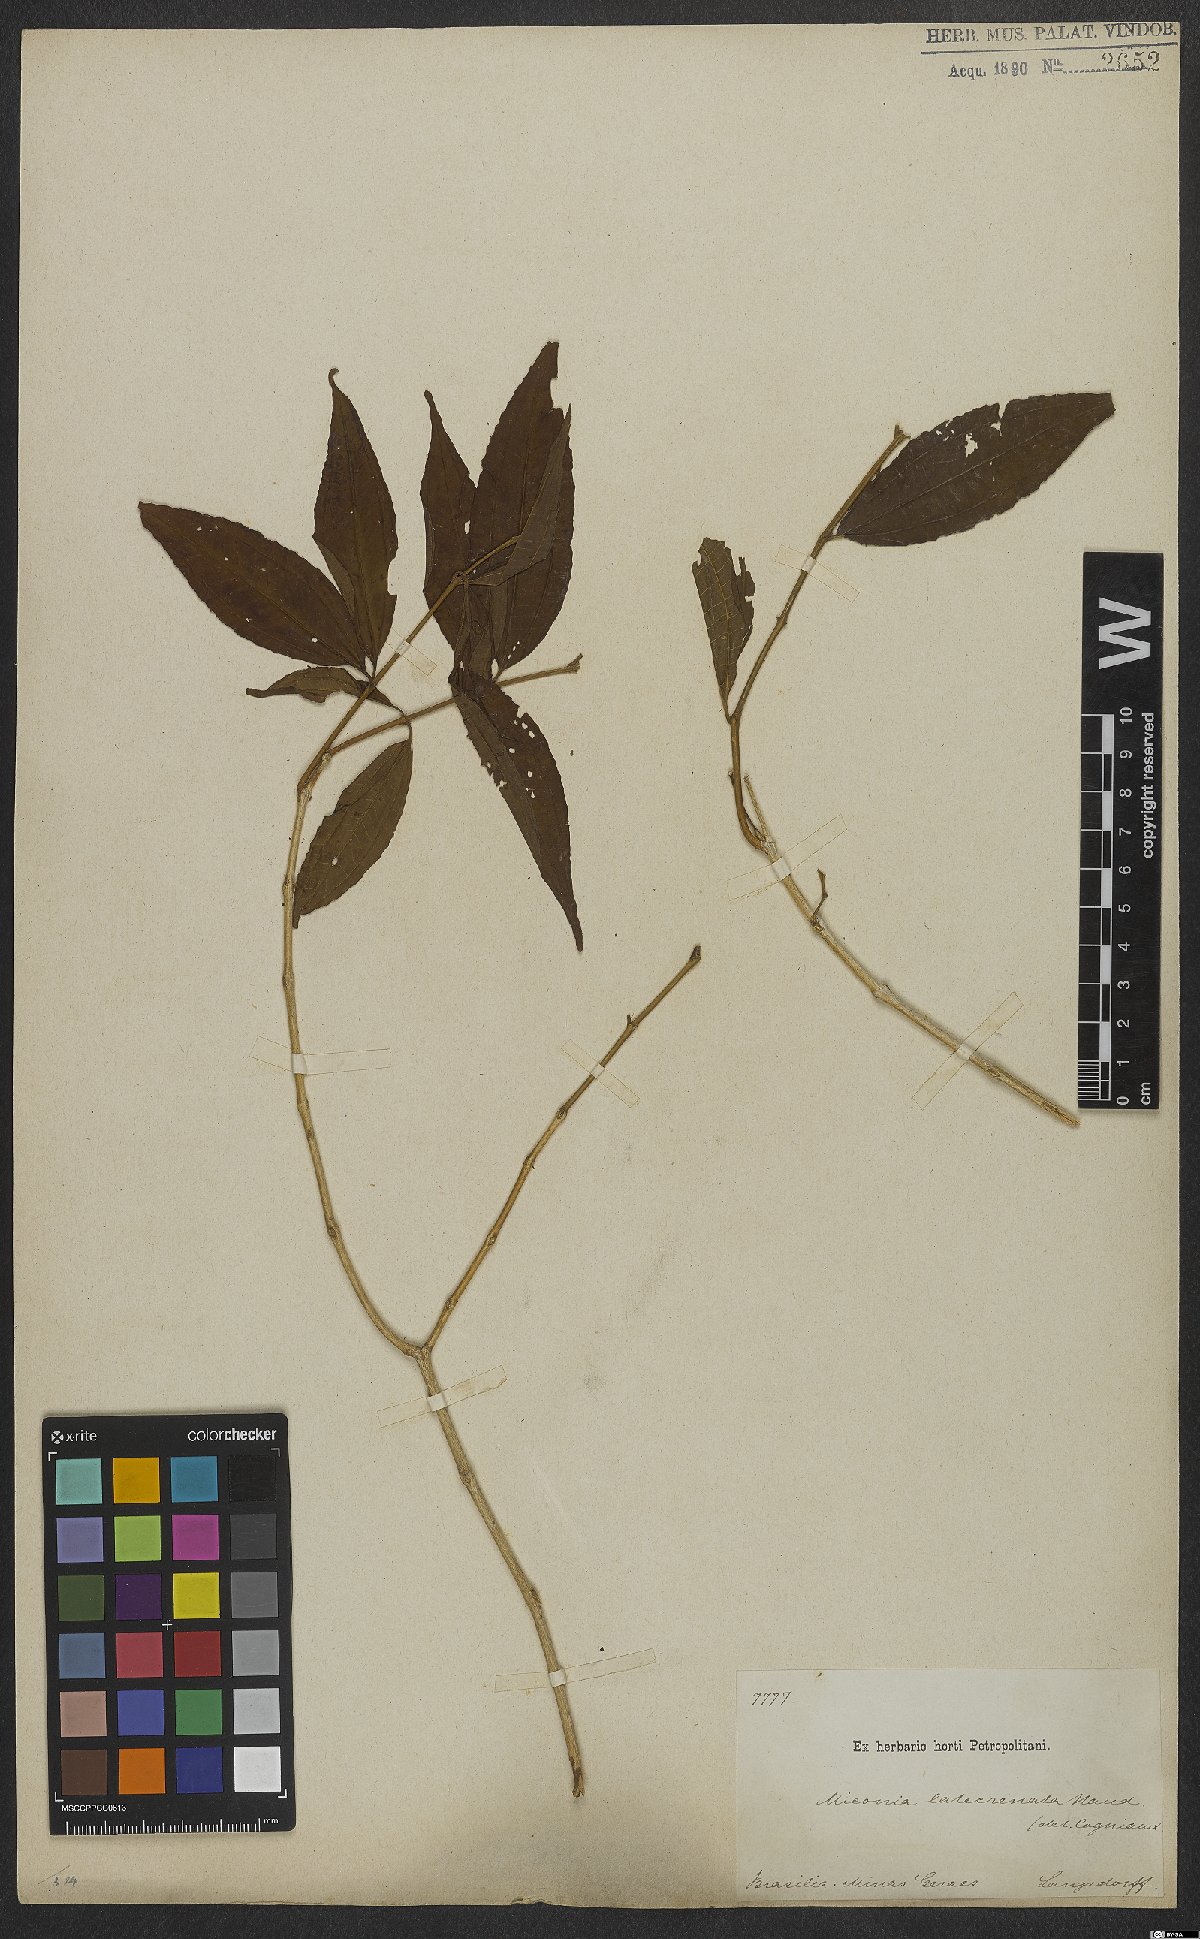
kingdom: Plantae
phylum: Tracheophyta
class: Magnoliopsida
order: Myrtales
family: Melastomataceae
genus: Miconia
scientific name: Miconia latecrenata
